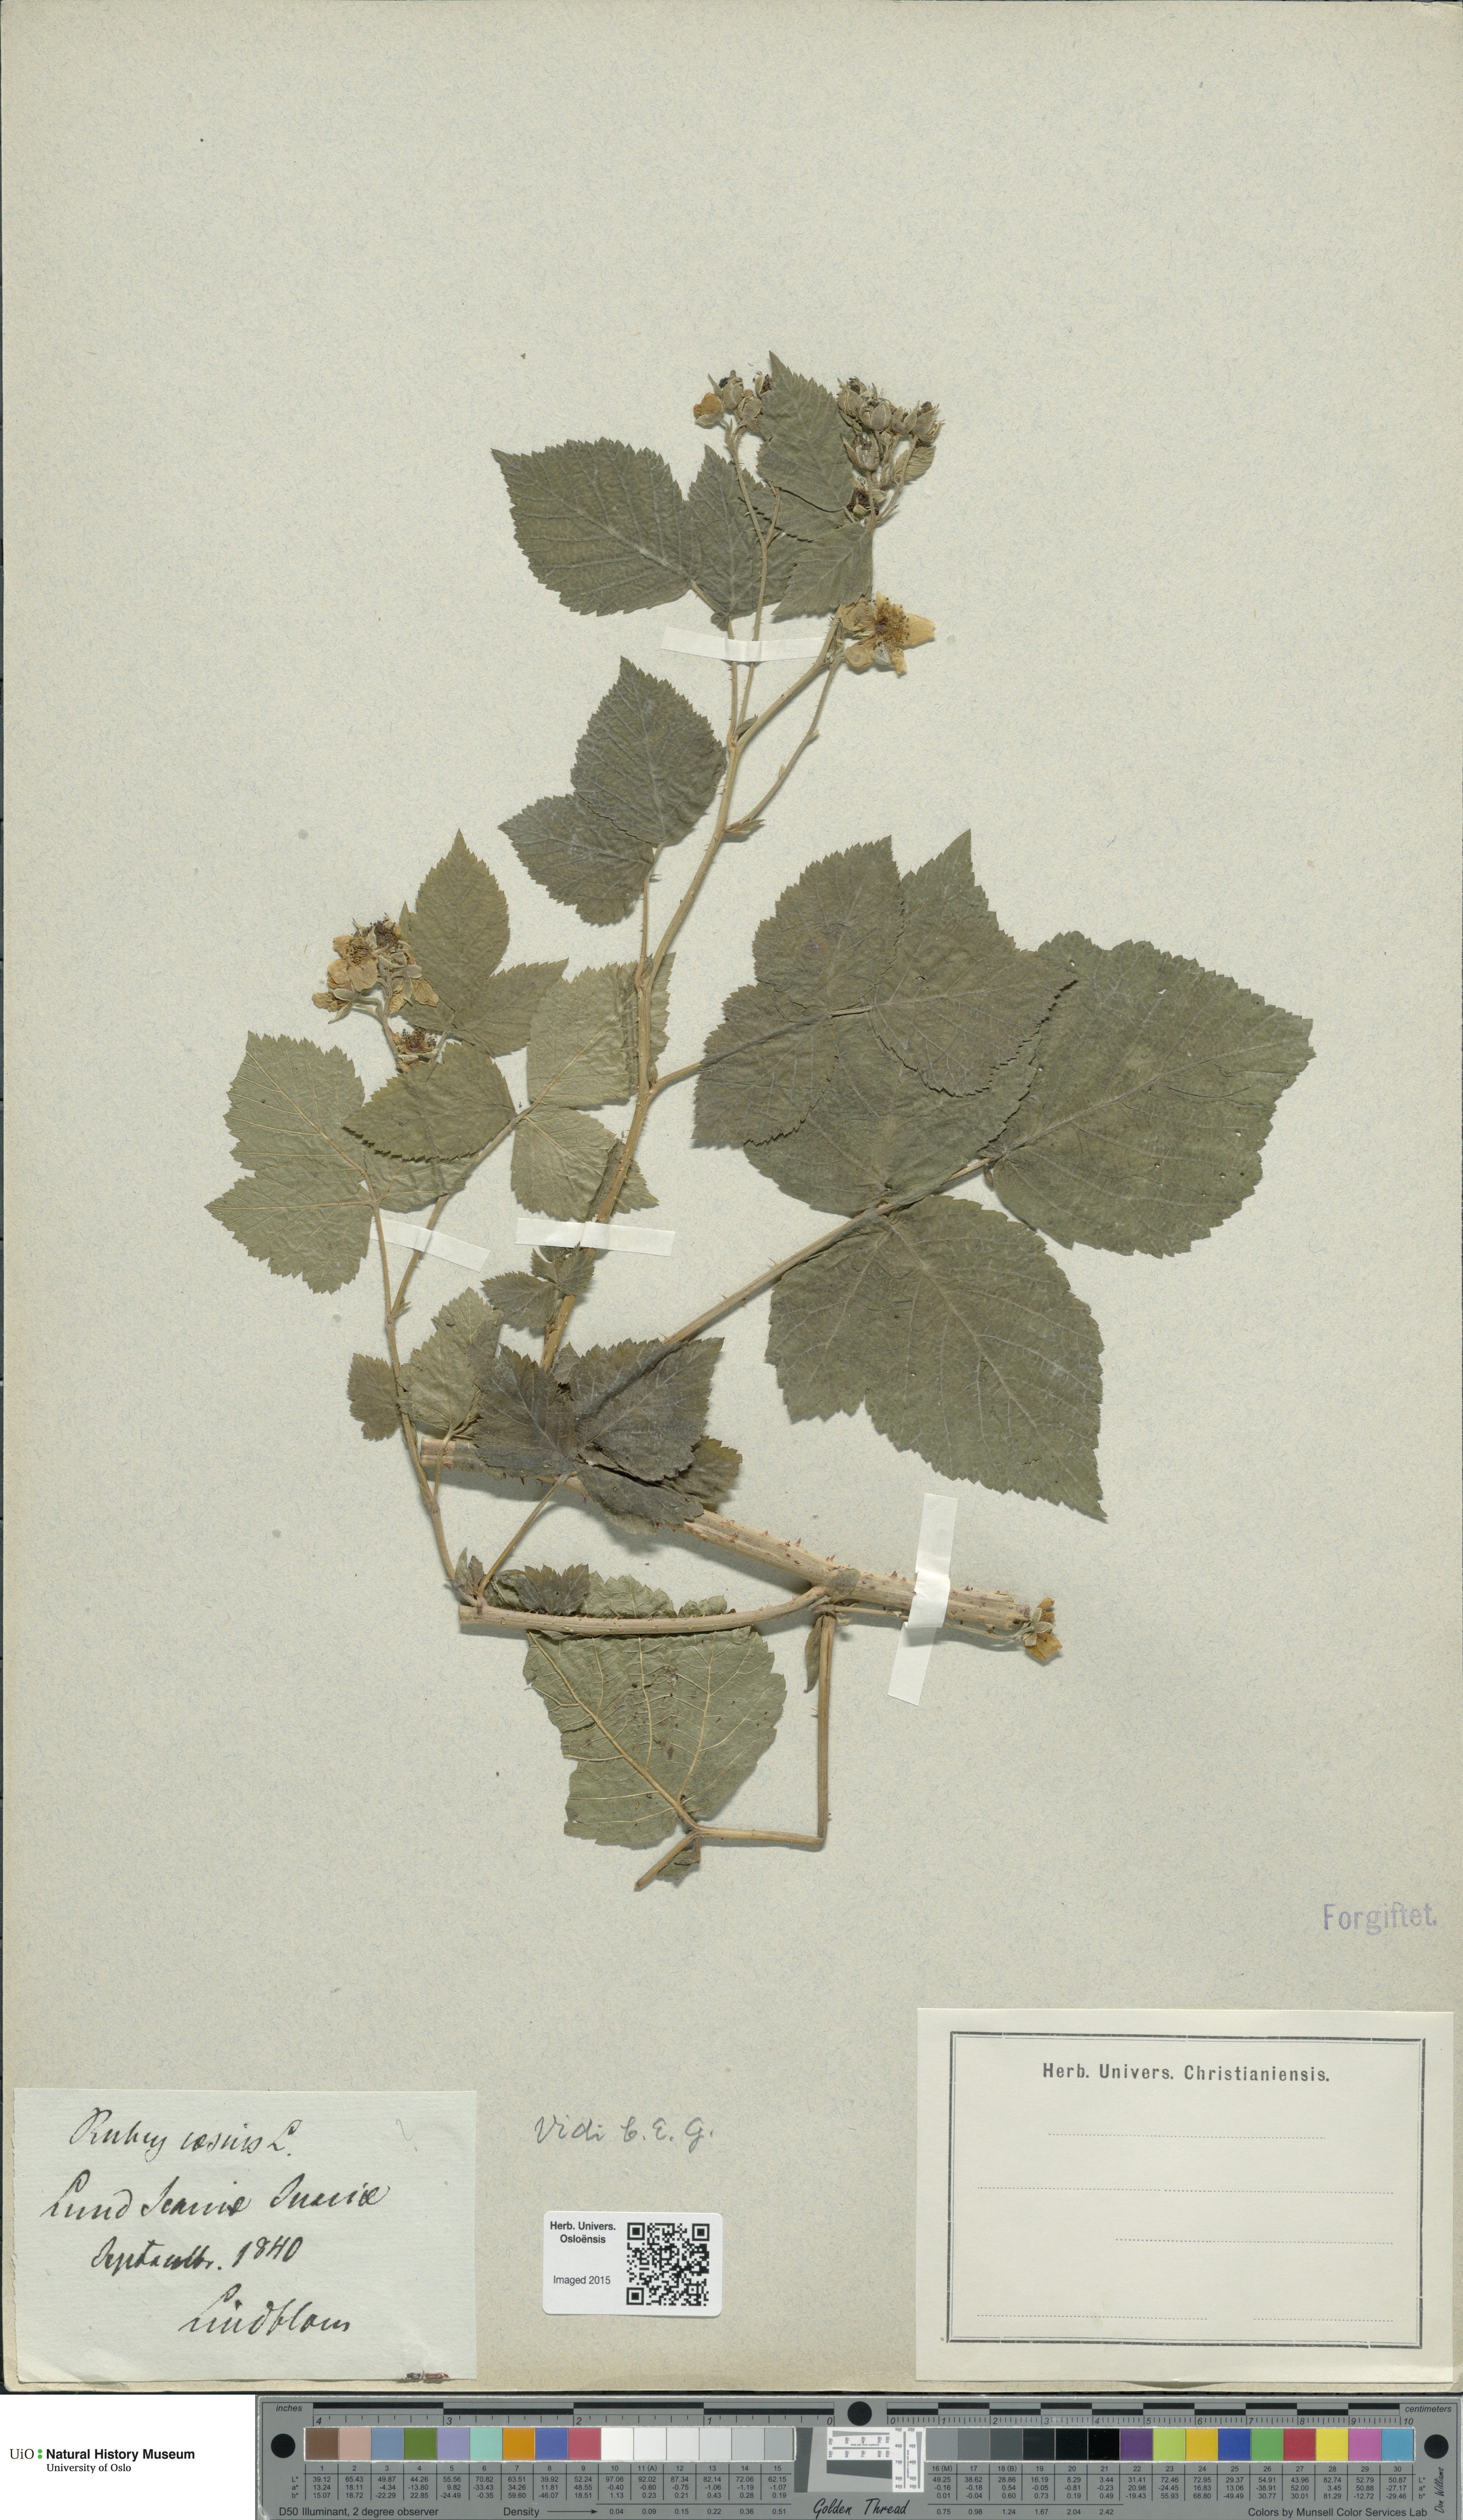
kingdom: Plantae
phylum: Tracheophyta
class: Magnoliopsida
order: Rosales
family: Rosaceae
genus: Rubus
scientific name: Rubus caesius
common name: Dewberry
